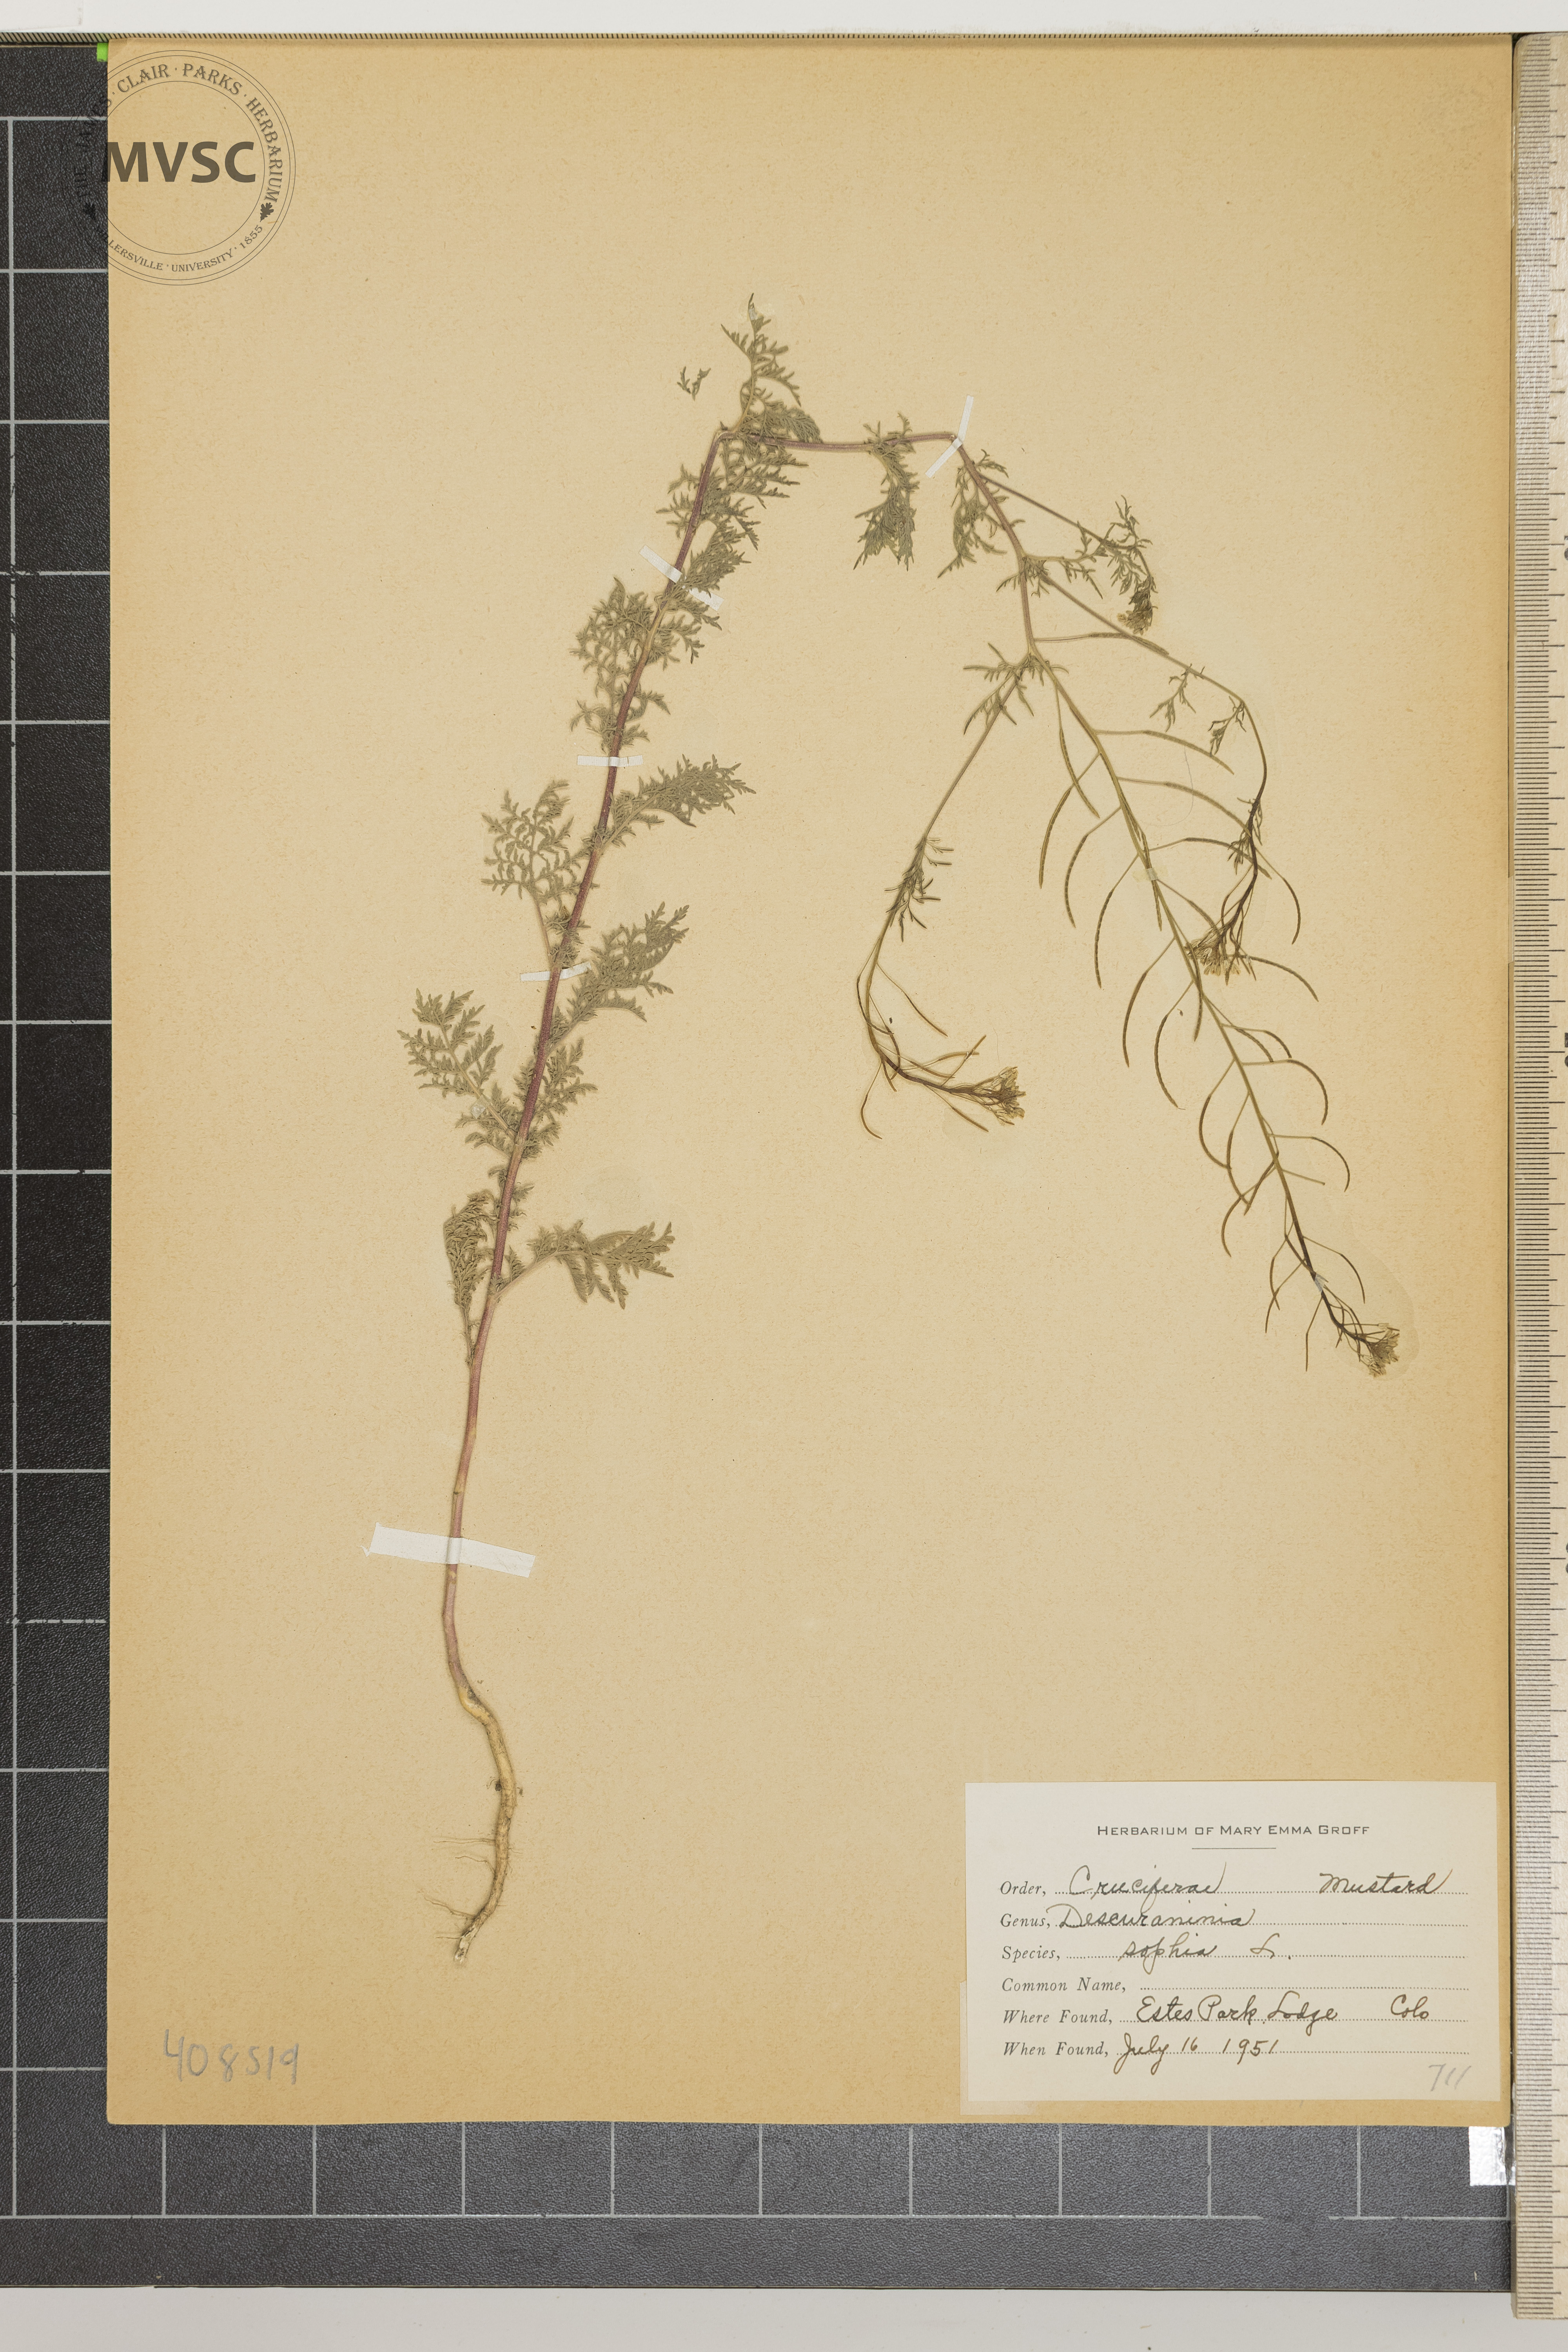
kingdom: Plantae
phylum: Tracheophyta
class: Magnoliopsida
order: Brassicales
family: Brassicaceae
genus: Descurainia
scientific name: Descurainia sophia
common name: Flixweed
